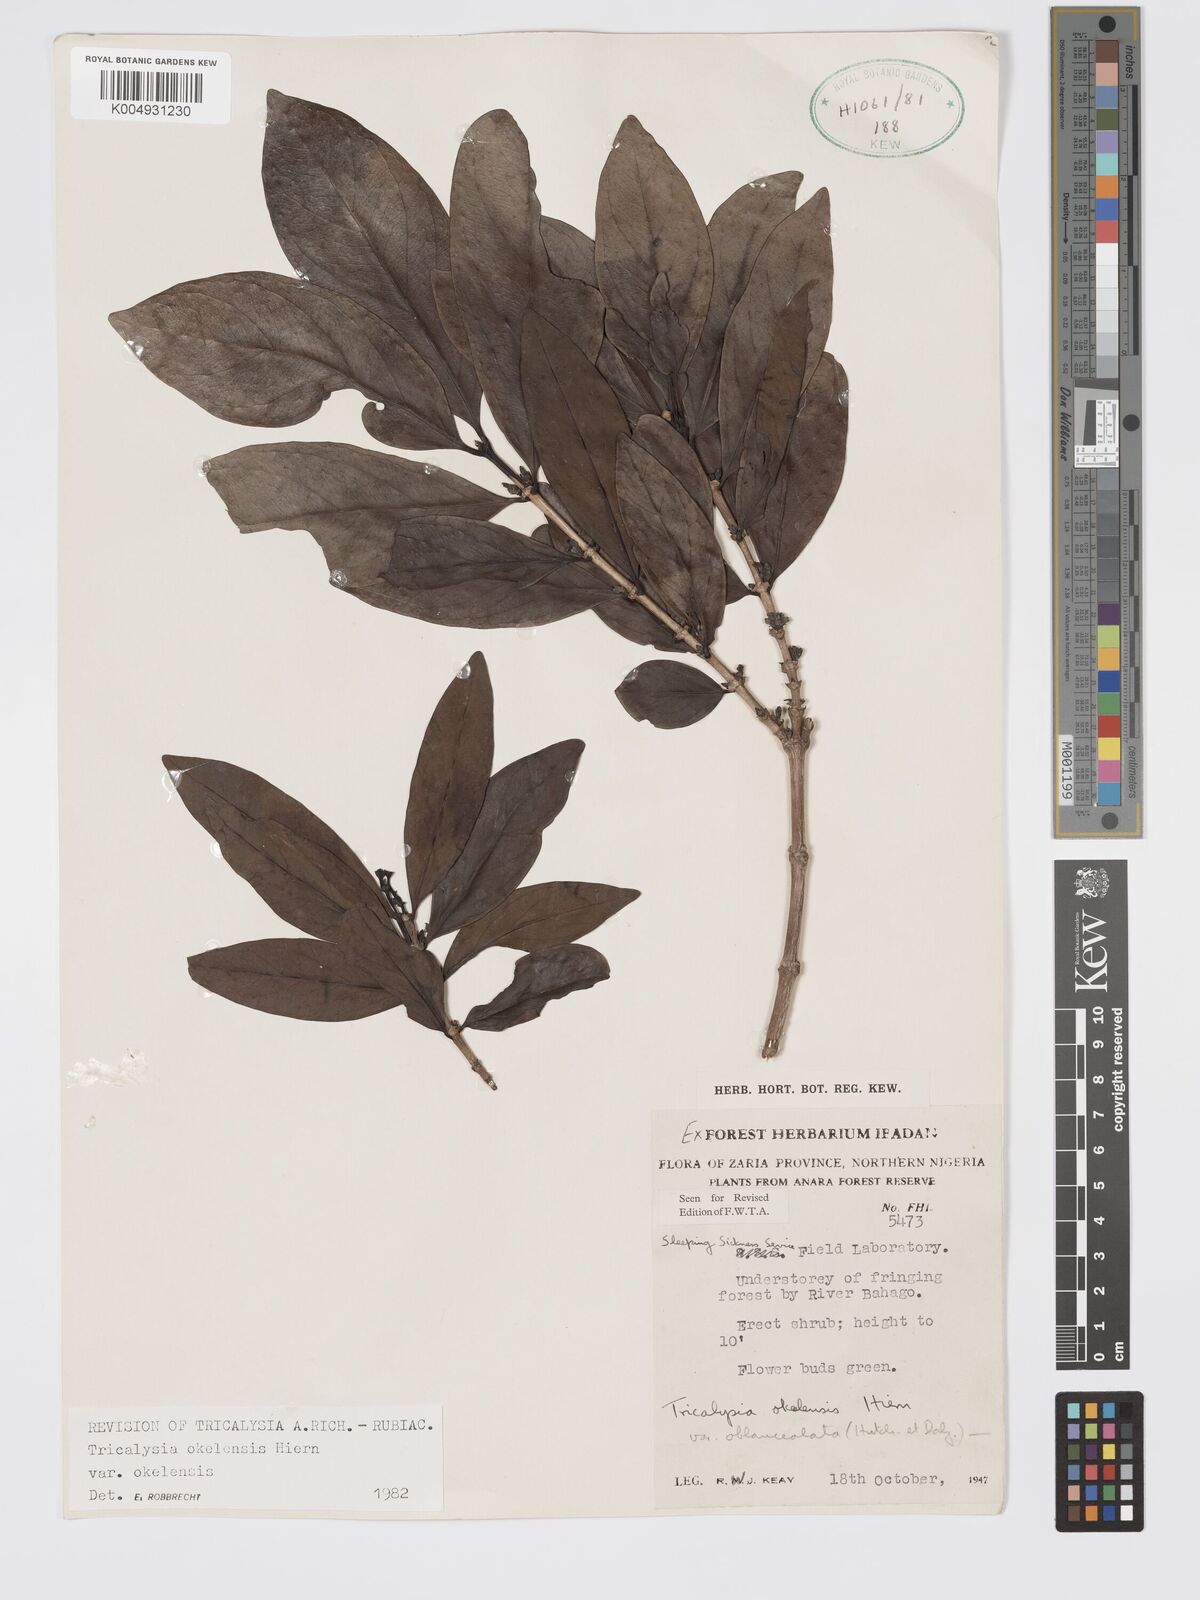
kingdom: Plantae
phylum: Tracheophyta
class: Magnoliopsida
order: Gentianales
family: Rubiaceae
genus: Tricalysia
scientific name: Tricalysia okelensis
